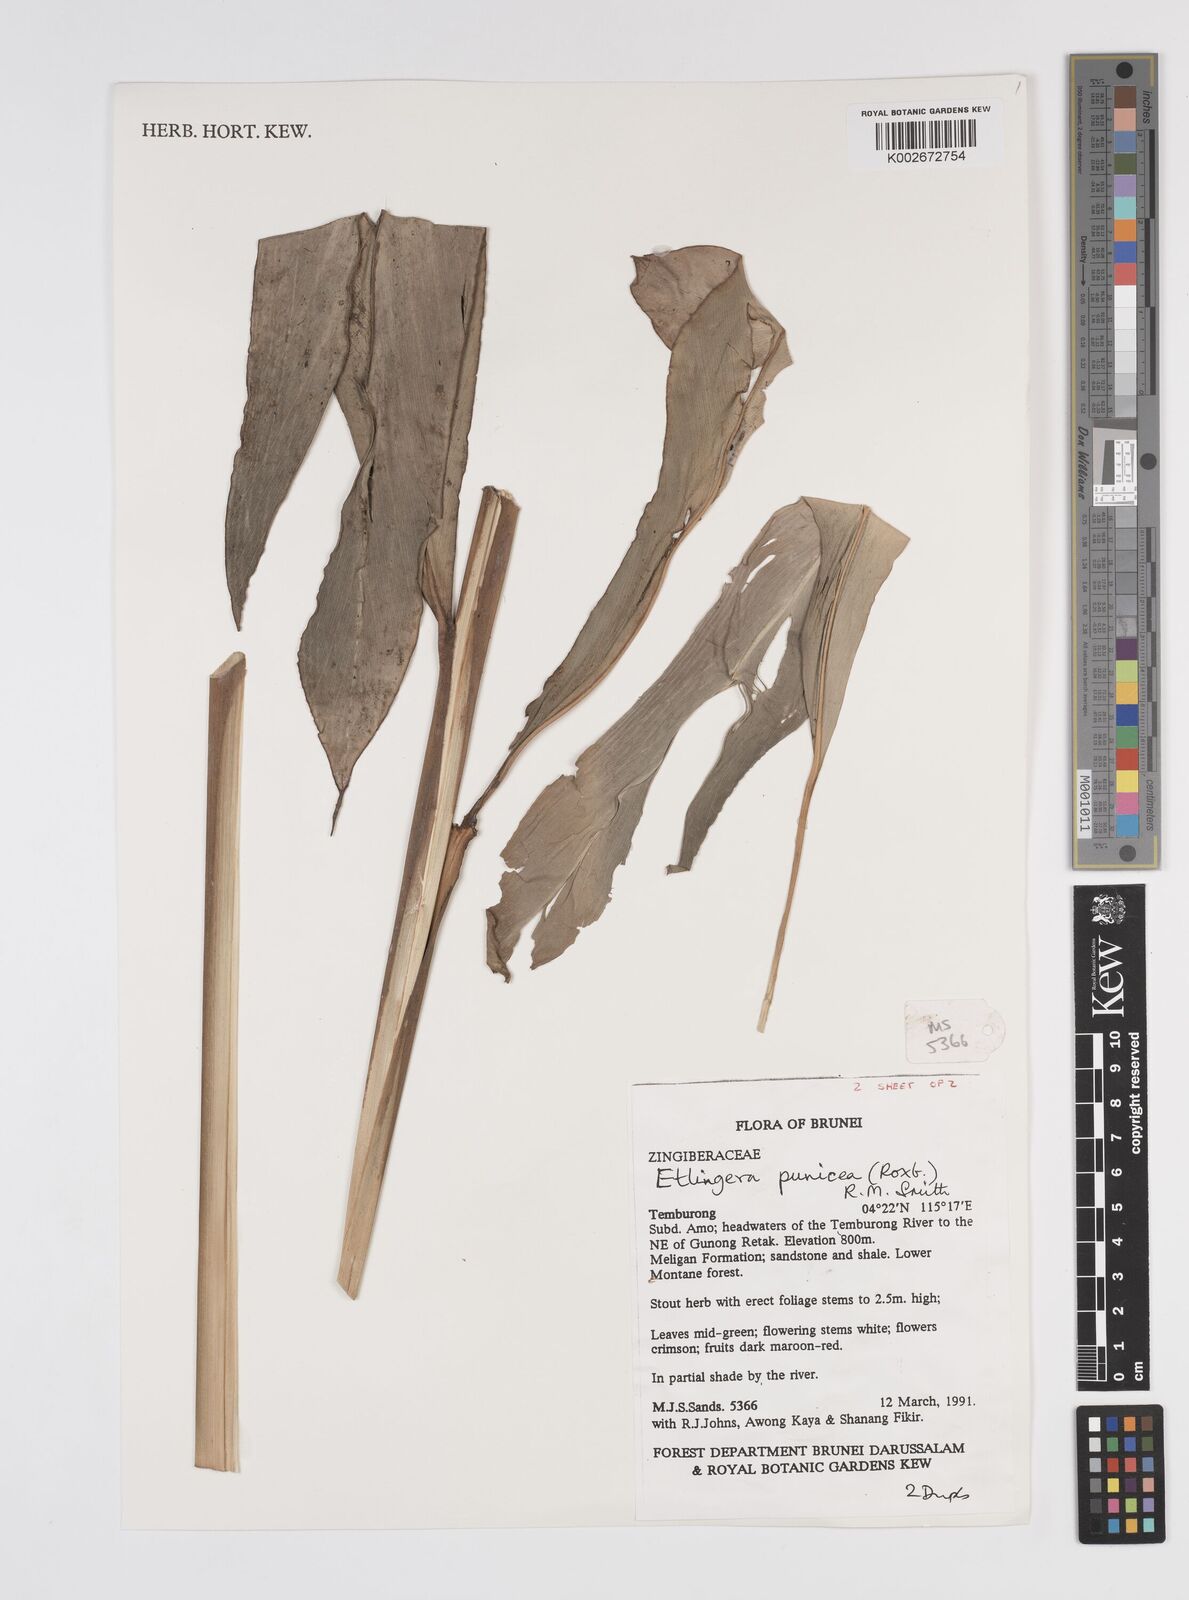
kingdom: Plantae
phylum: Tracheophyta
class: Liliopsida
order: Zingiberales
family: Zingiberaceae
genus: Etlingera
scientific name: Etlingera punicea
